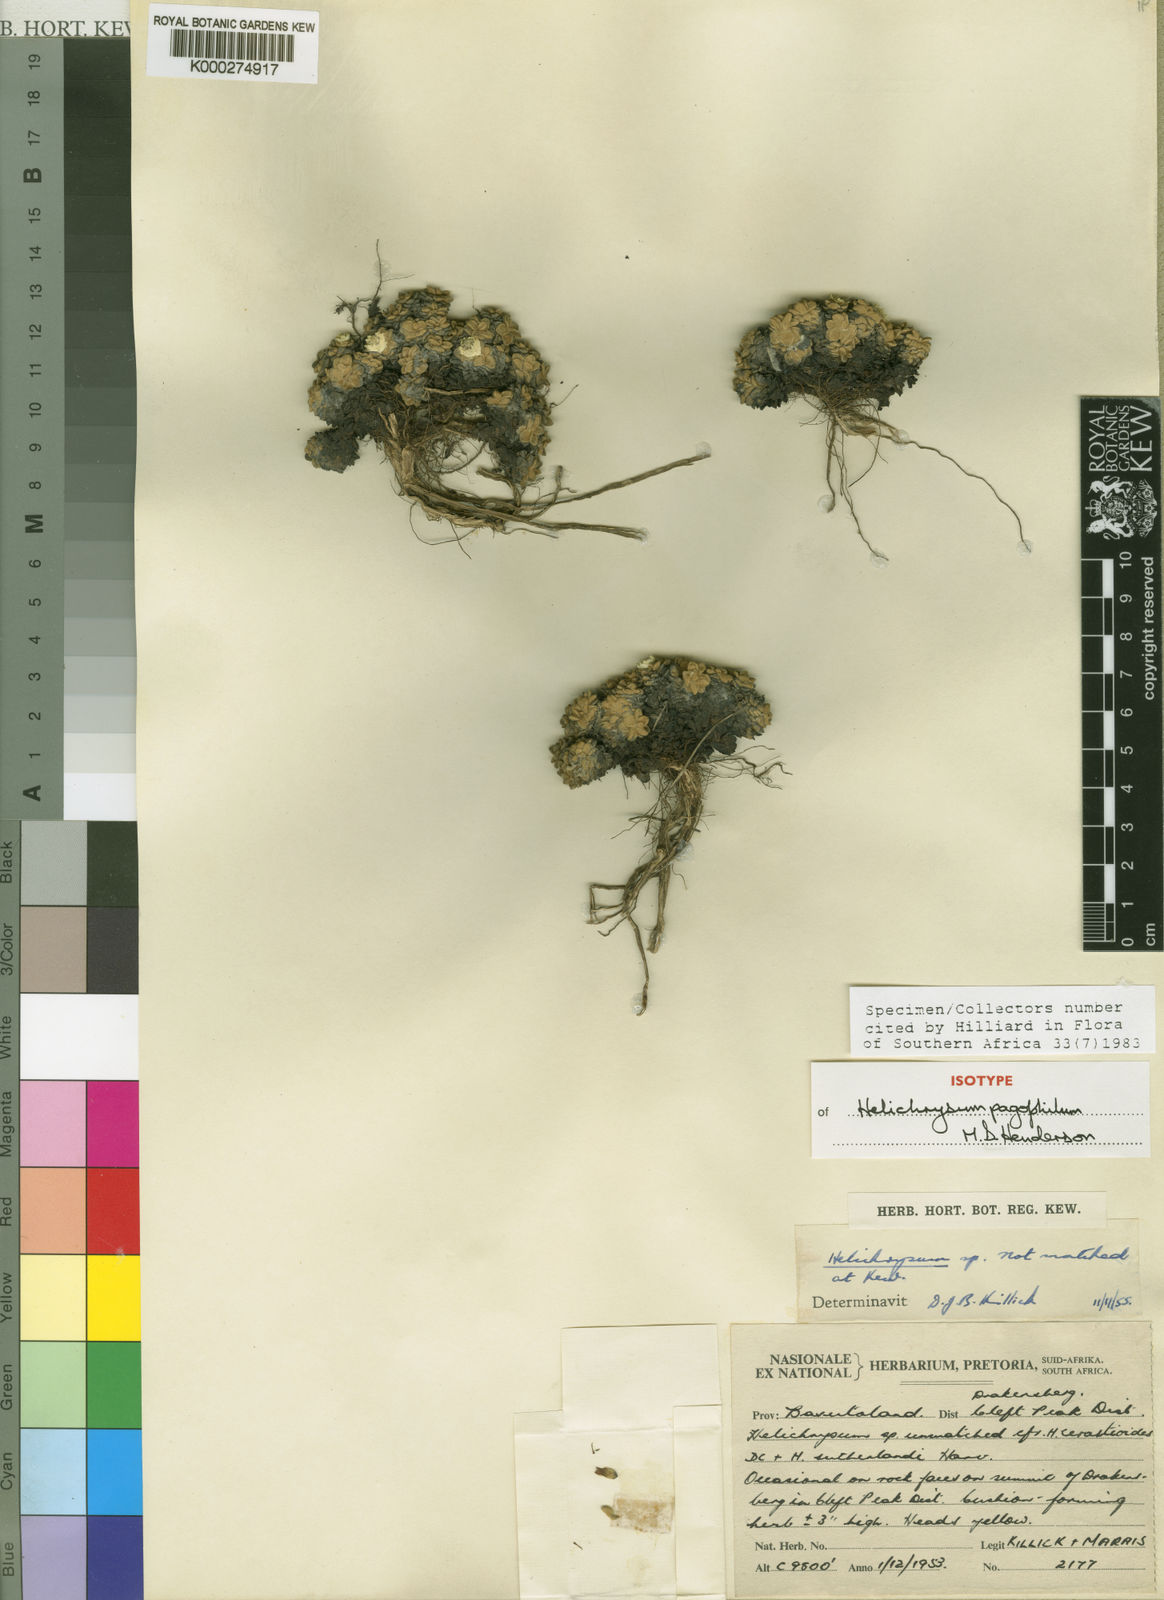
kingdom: Plantae
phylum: Tracheophyta
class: Magnoliopsida
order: Asterales
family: Asteraceae
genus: Helichrysum
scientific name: Helichrysum pagophilum
